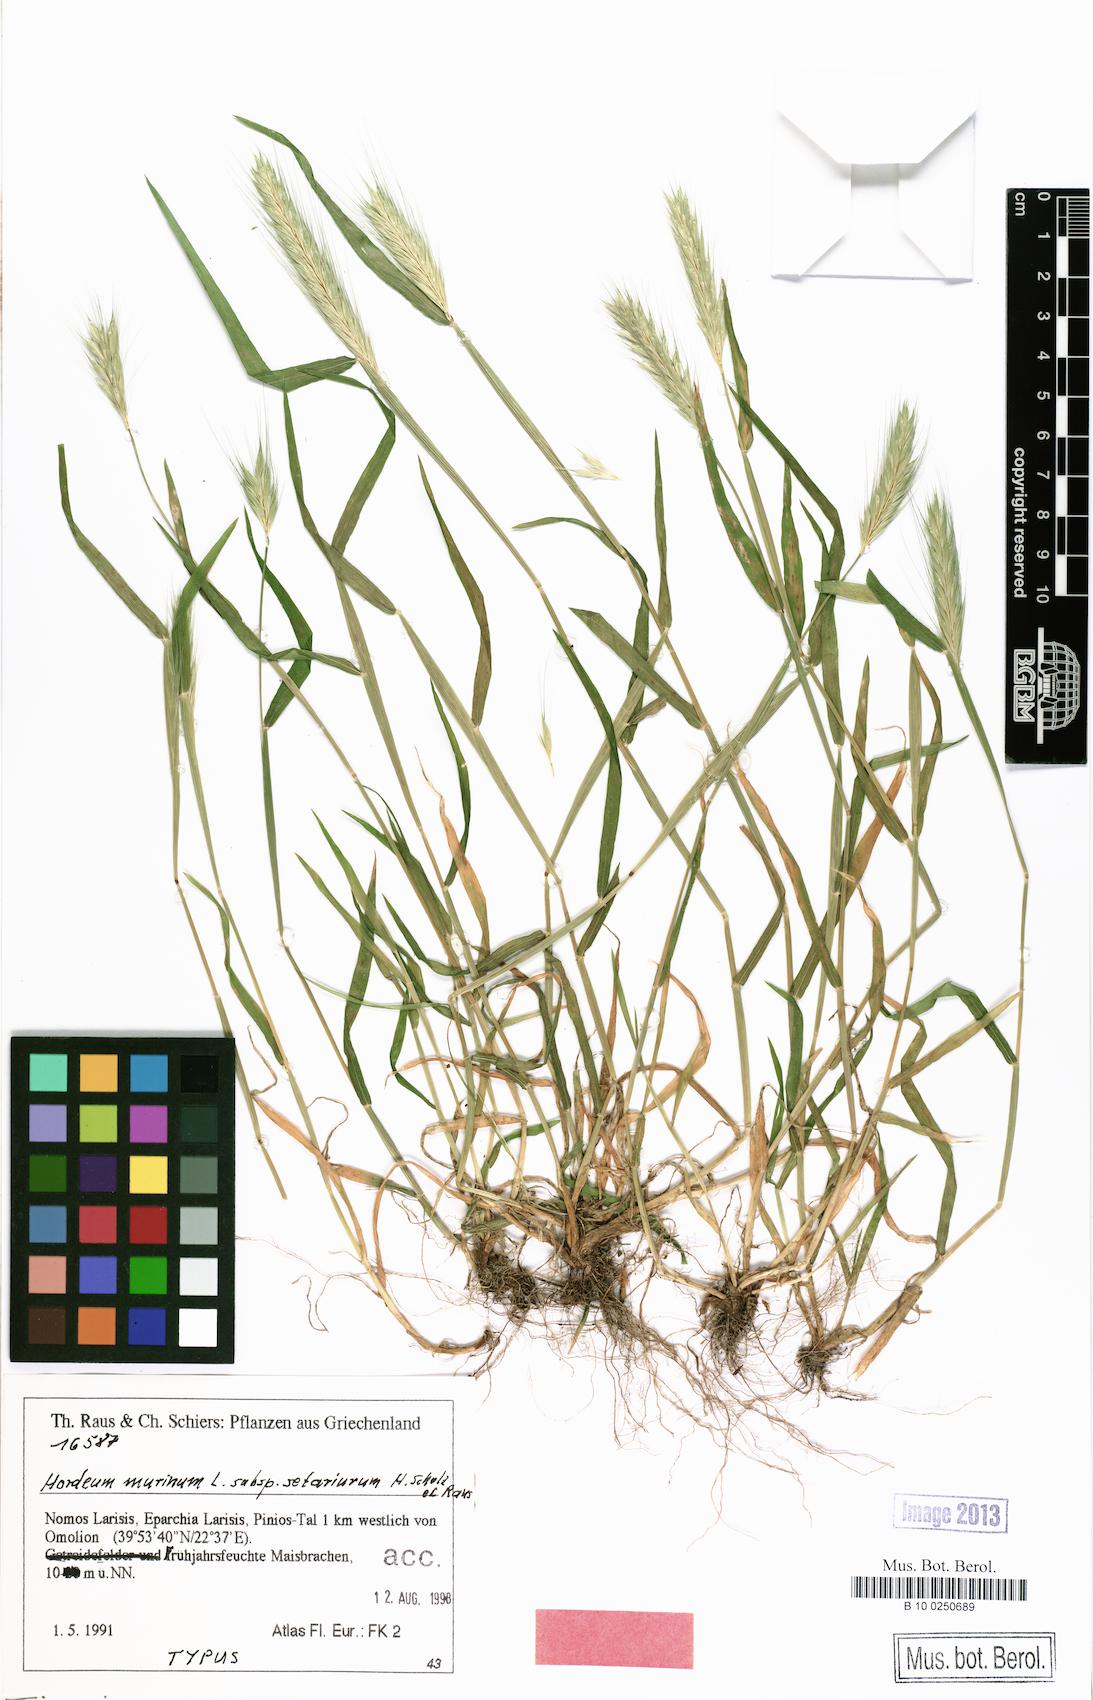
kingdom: Plantae
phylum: Tracheophyta
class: Liliopsida
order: Poales
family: Poaceae
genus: Hordeum
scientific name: Hordeum murinum
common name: Wall barley
